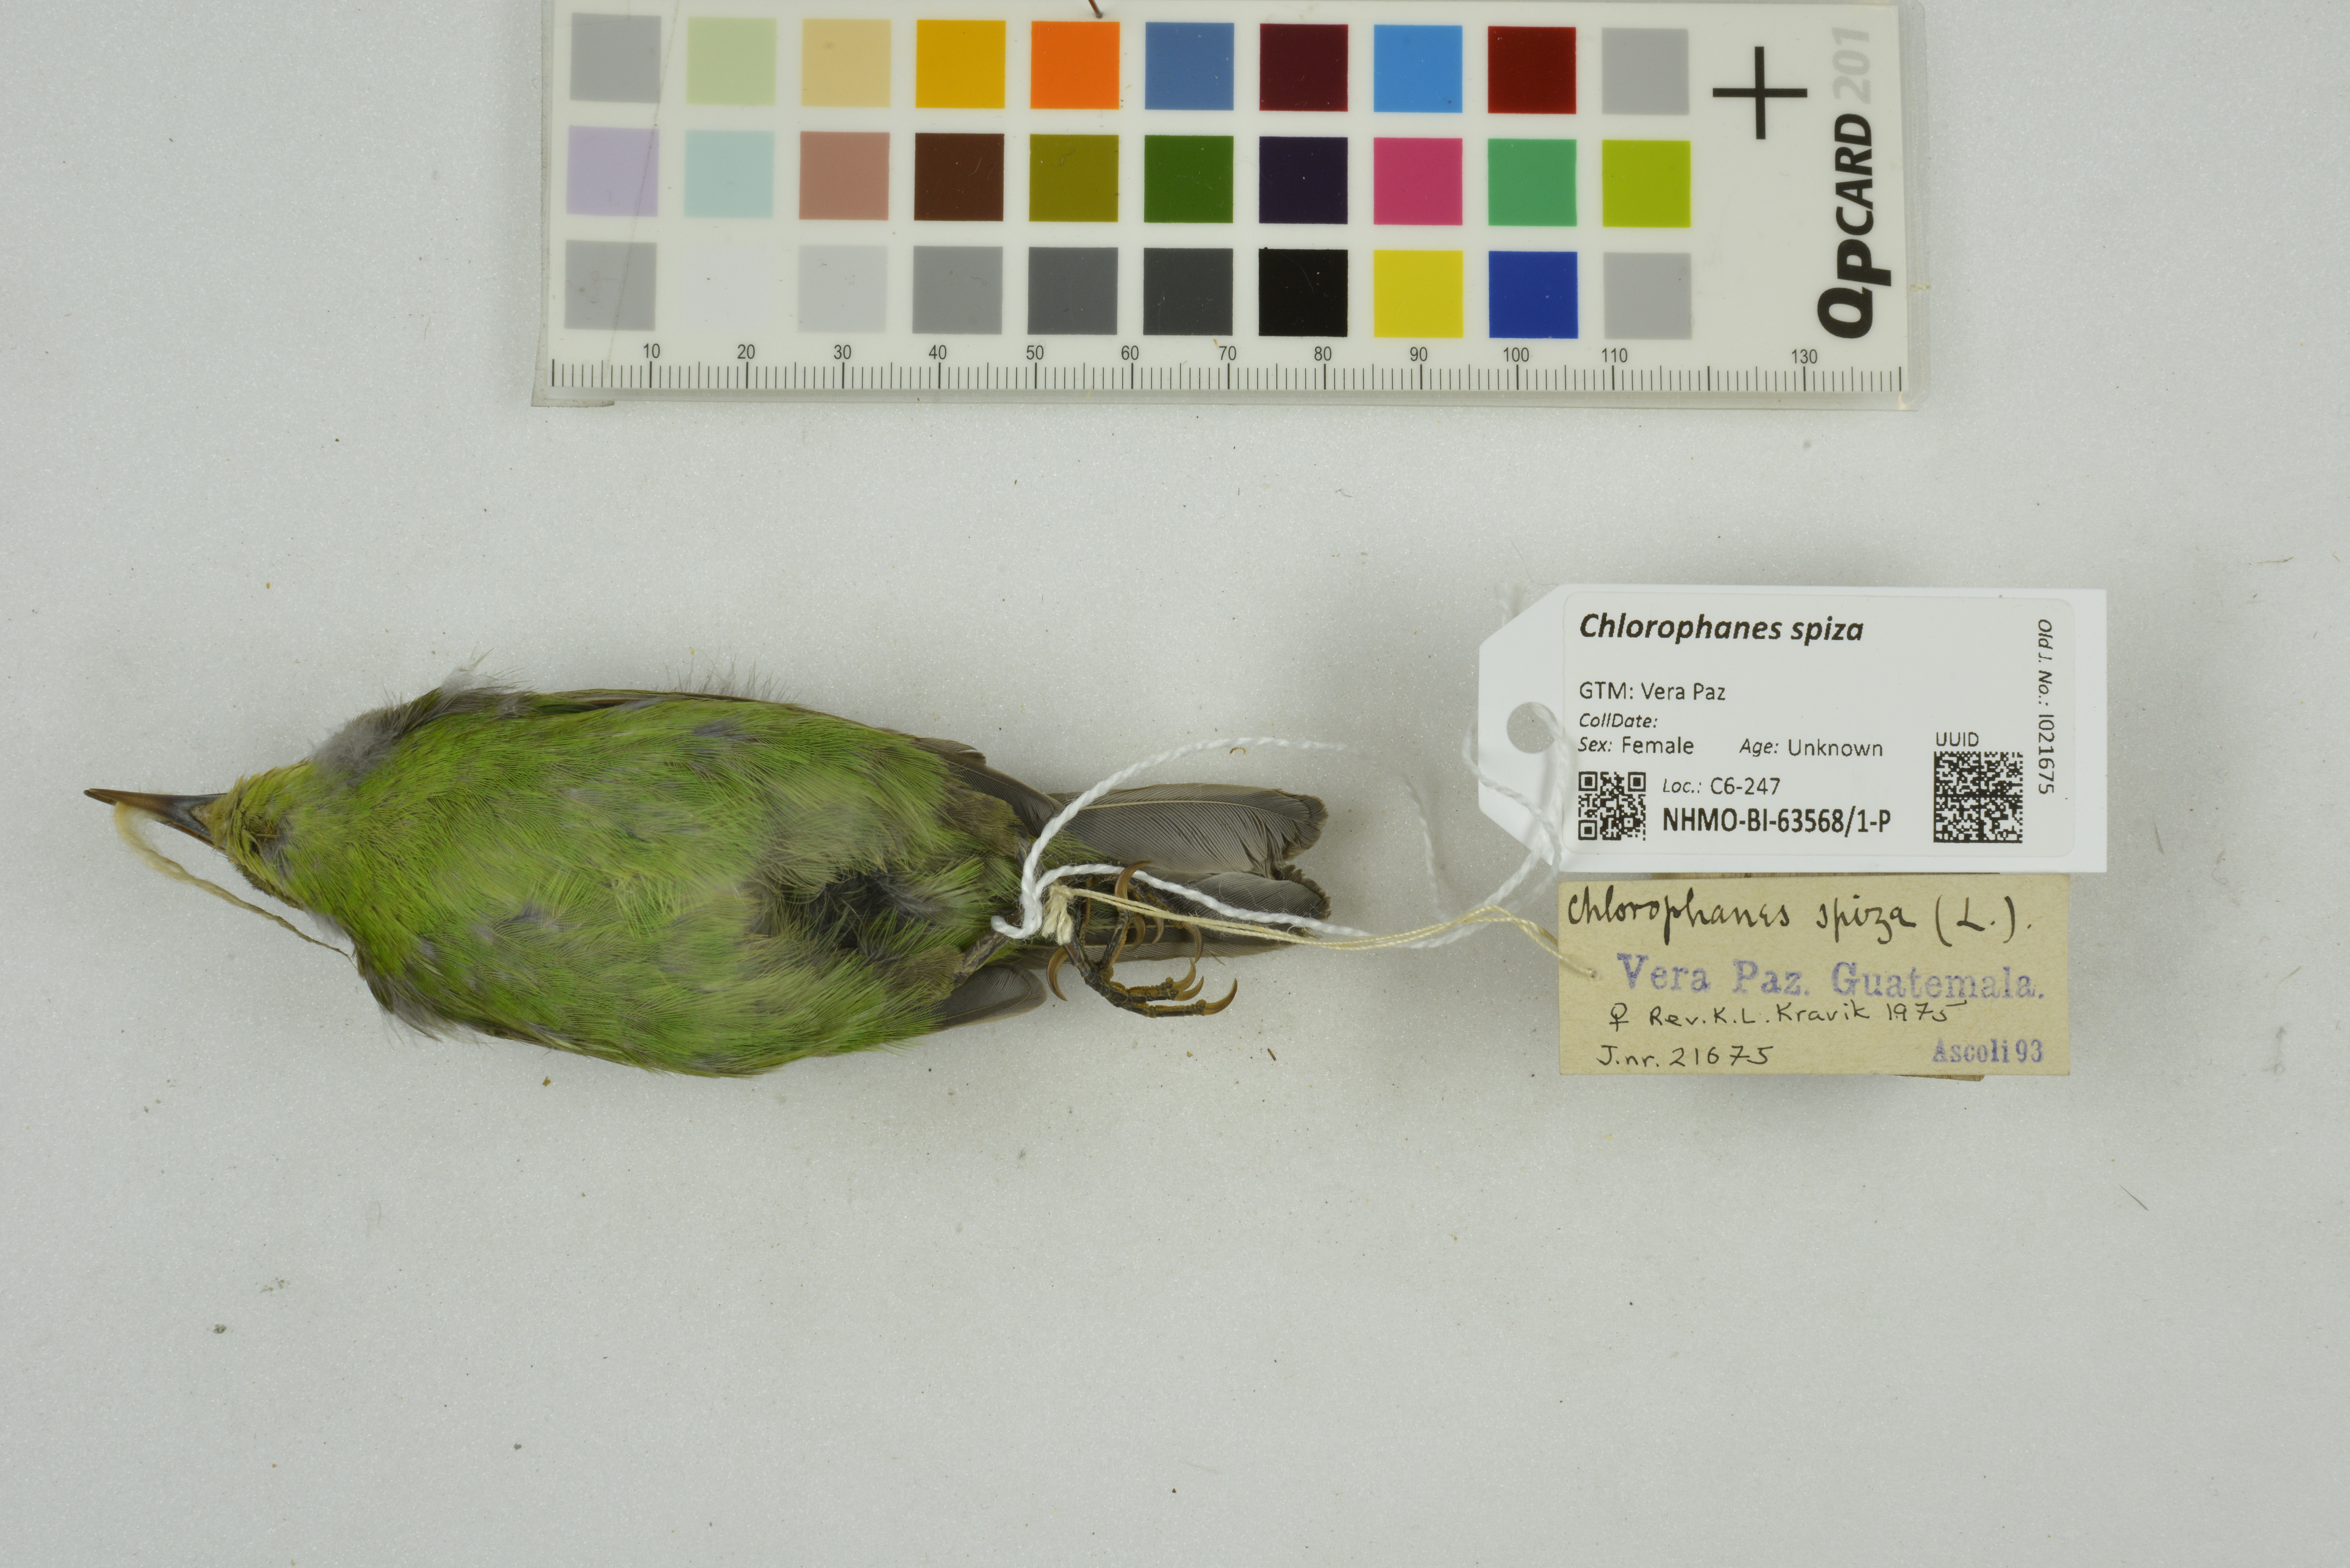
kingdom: Animalia
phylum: Chordata
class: Aves
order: Passeriformes
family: Thraupidae
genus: Chlorophanes
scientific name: Chlorophanes spiza
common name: Green honeycreeper
